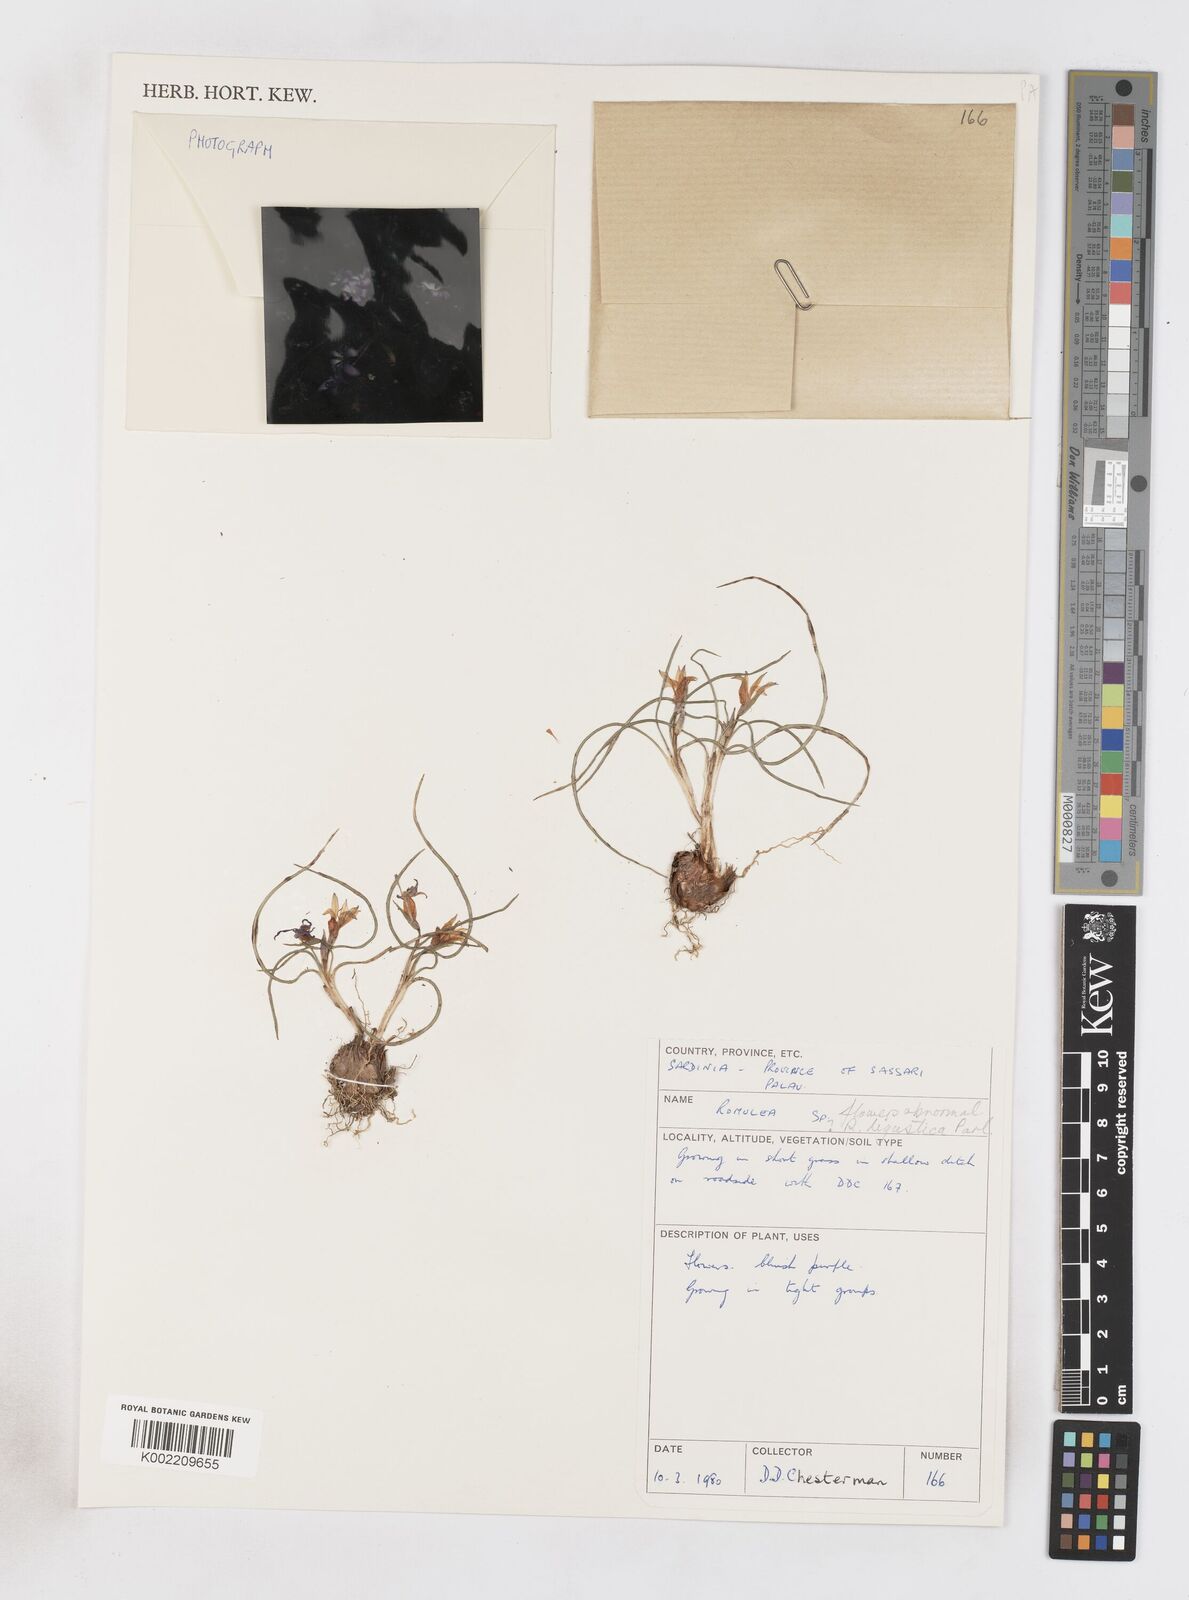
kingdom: Plantae
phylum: Tracheophyta
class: Liliopsida
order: Asparagales
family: Iridaceae
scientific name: Iridaceae
